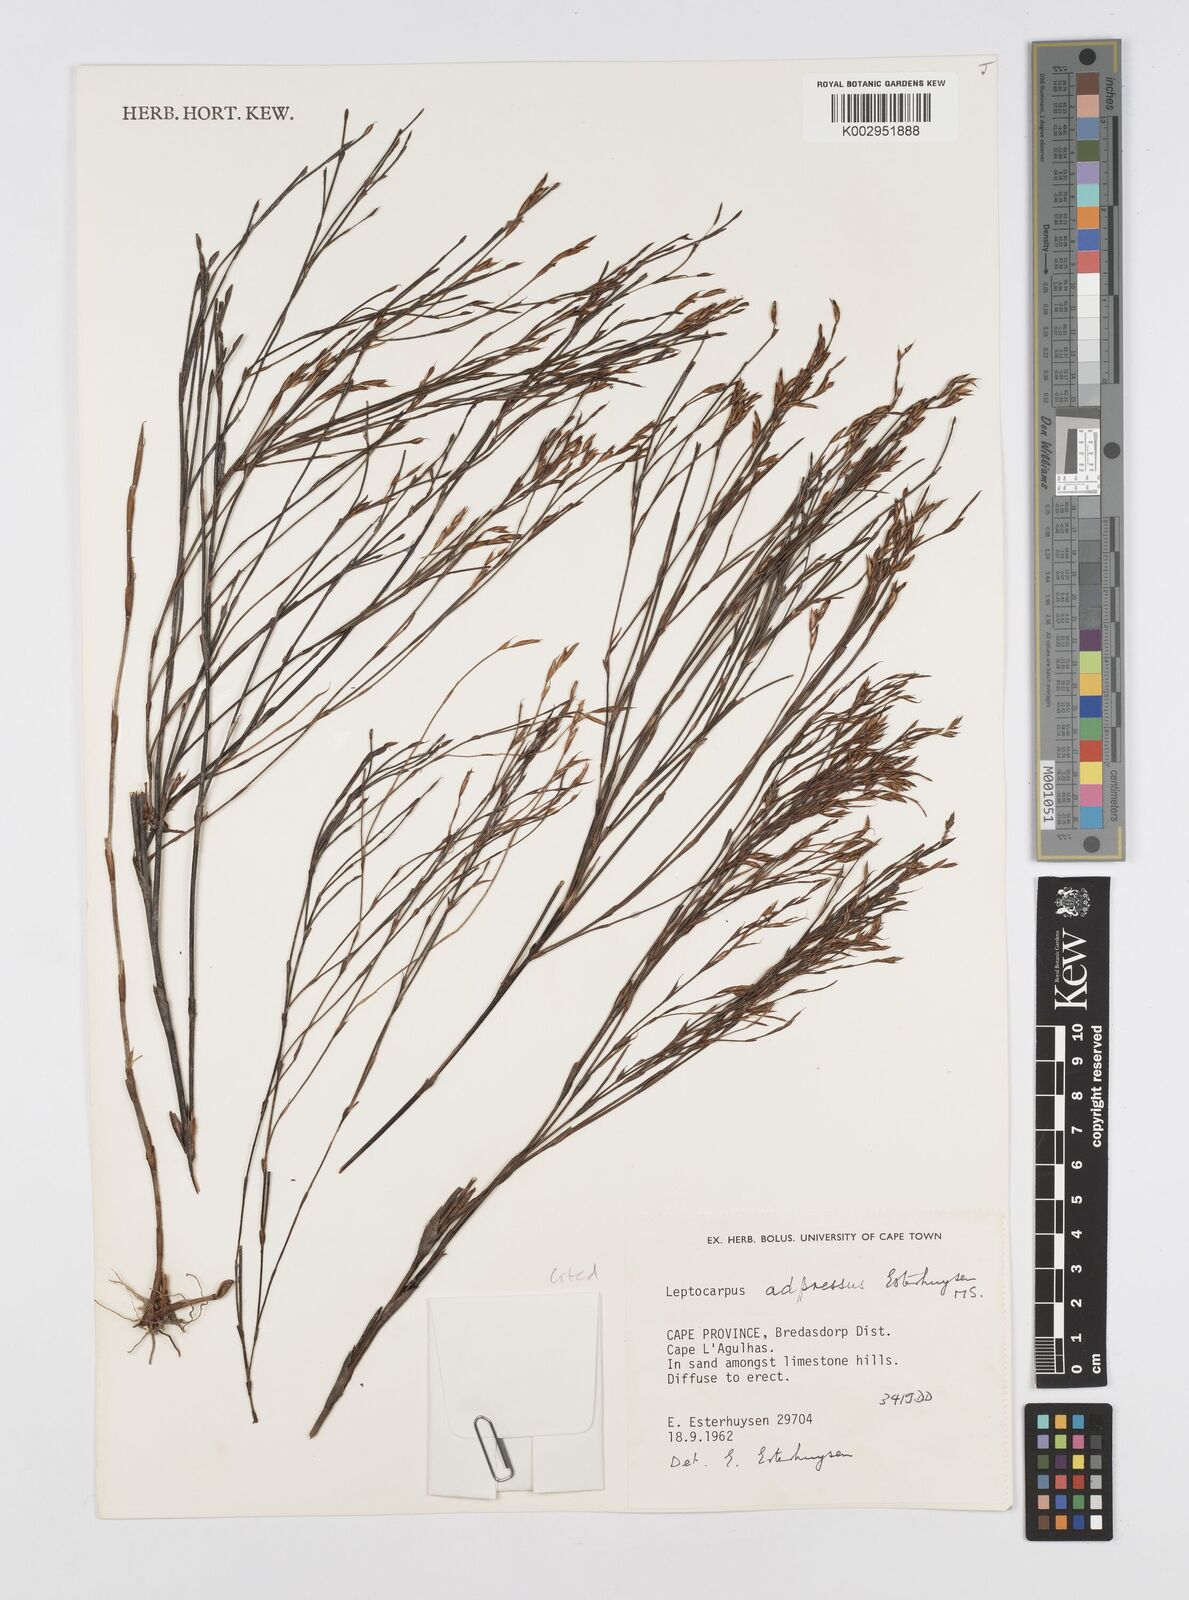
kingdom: Plantae
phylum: Tracheophyta
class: Liliopsida
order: Poales
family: Restionaceae
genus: Restio
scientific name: Restio adpressus
